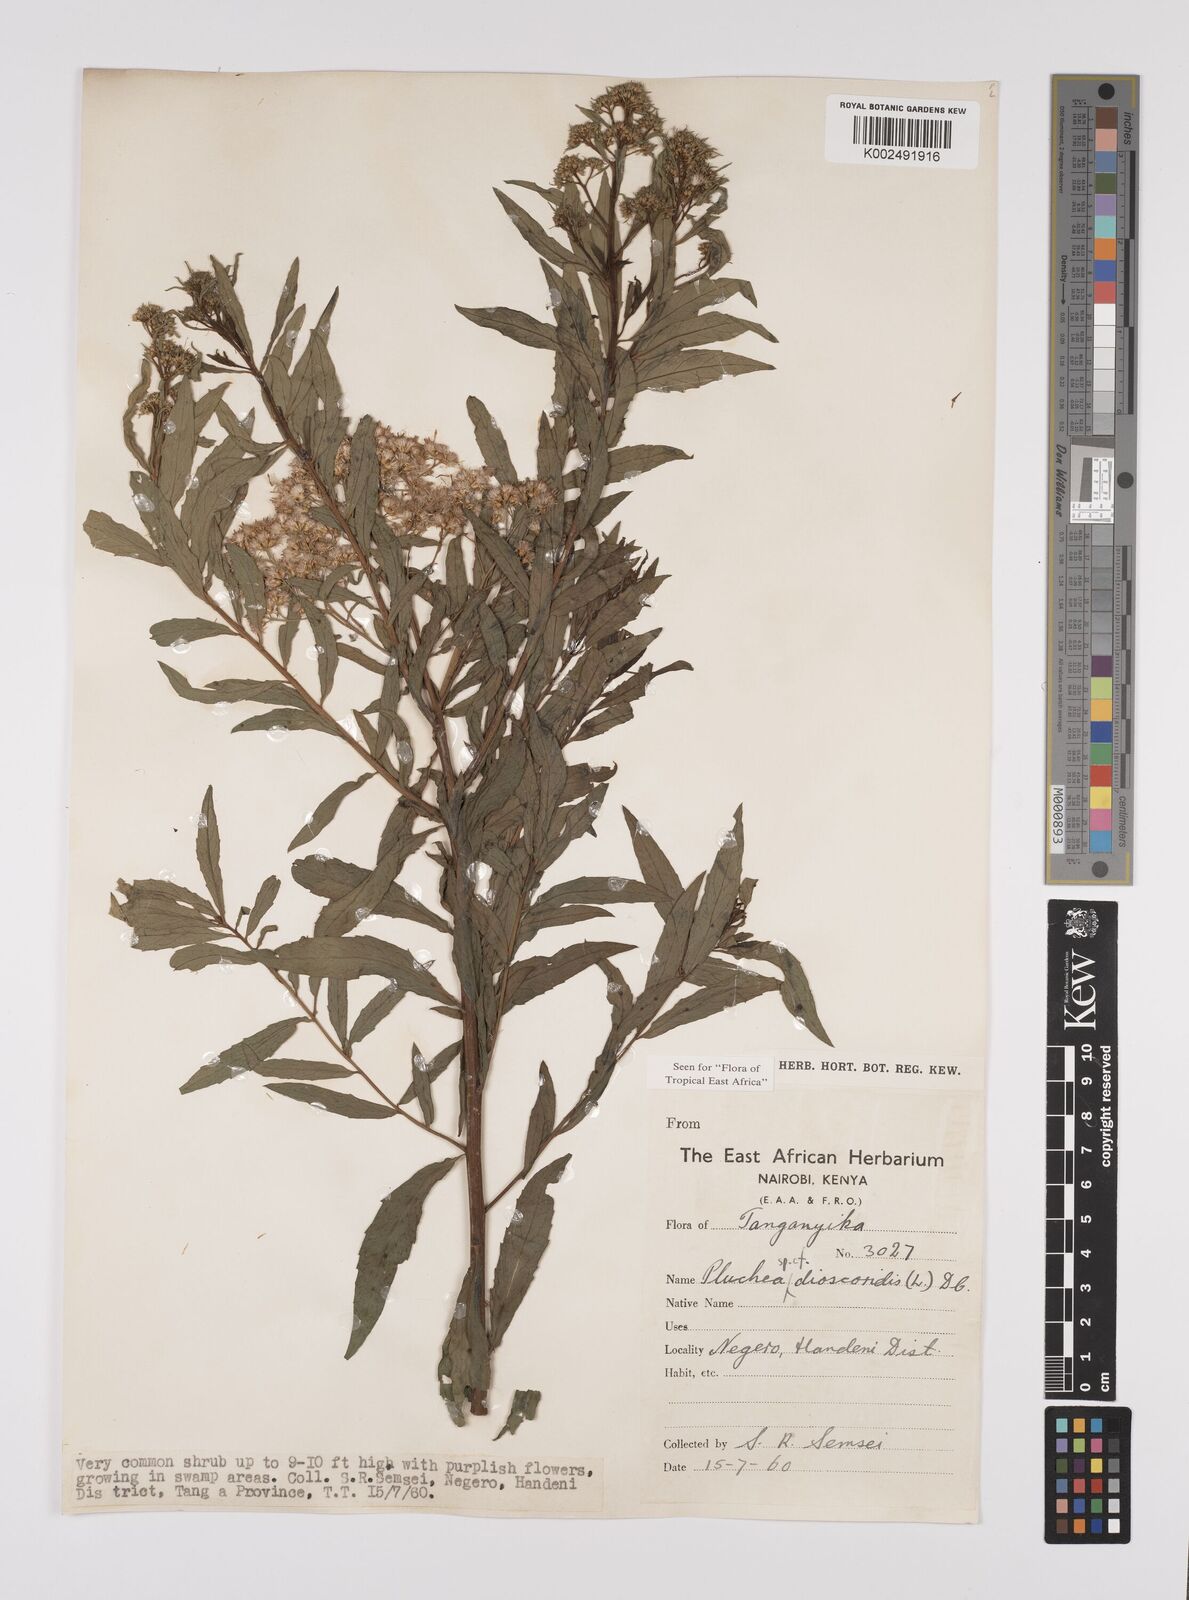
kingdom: Plantae
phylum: Tracheophyta
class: Magnoliopsida
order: Asterales
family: Asteraceae
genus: Pluchea
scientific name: Pluchea dioscoridis
